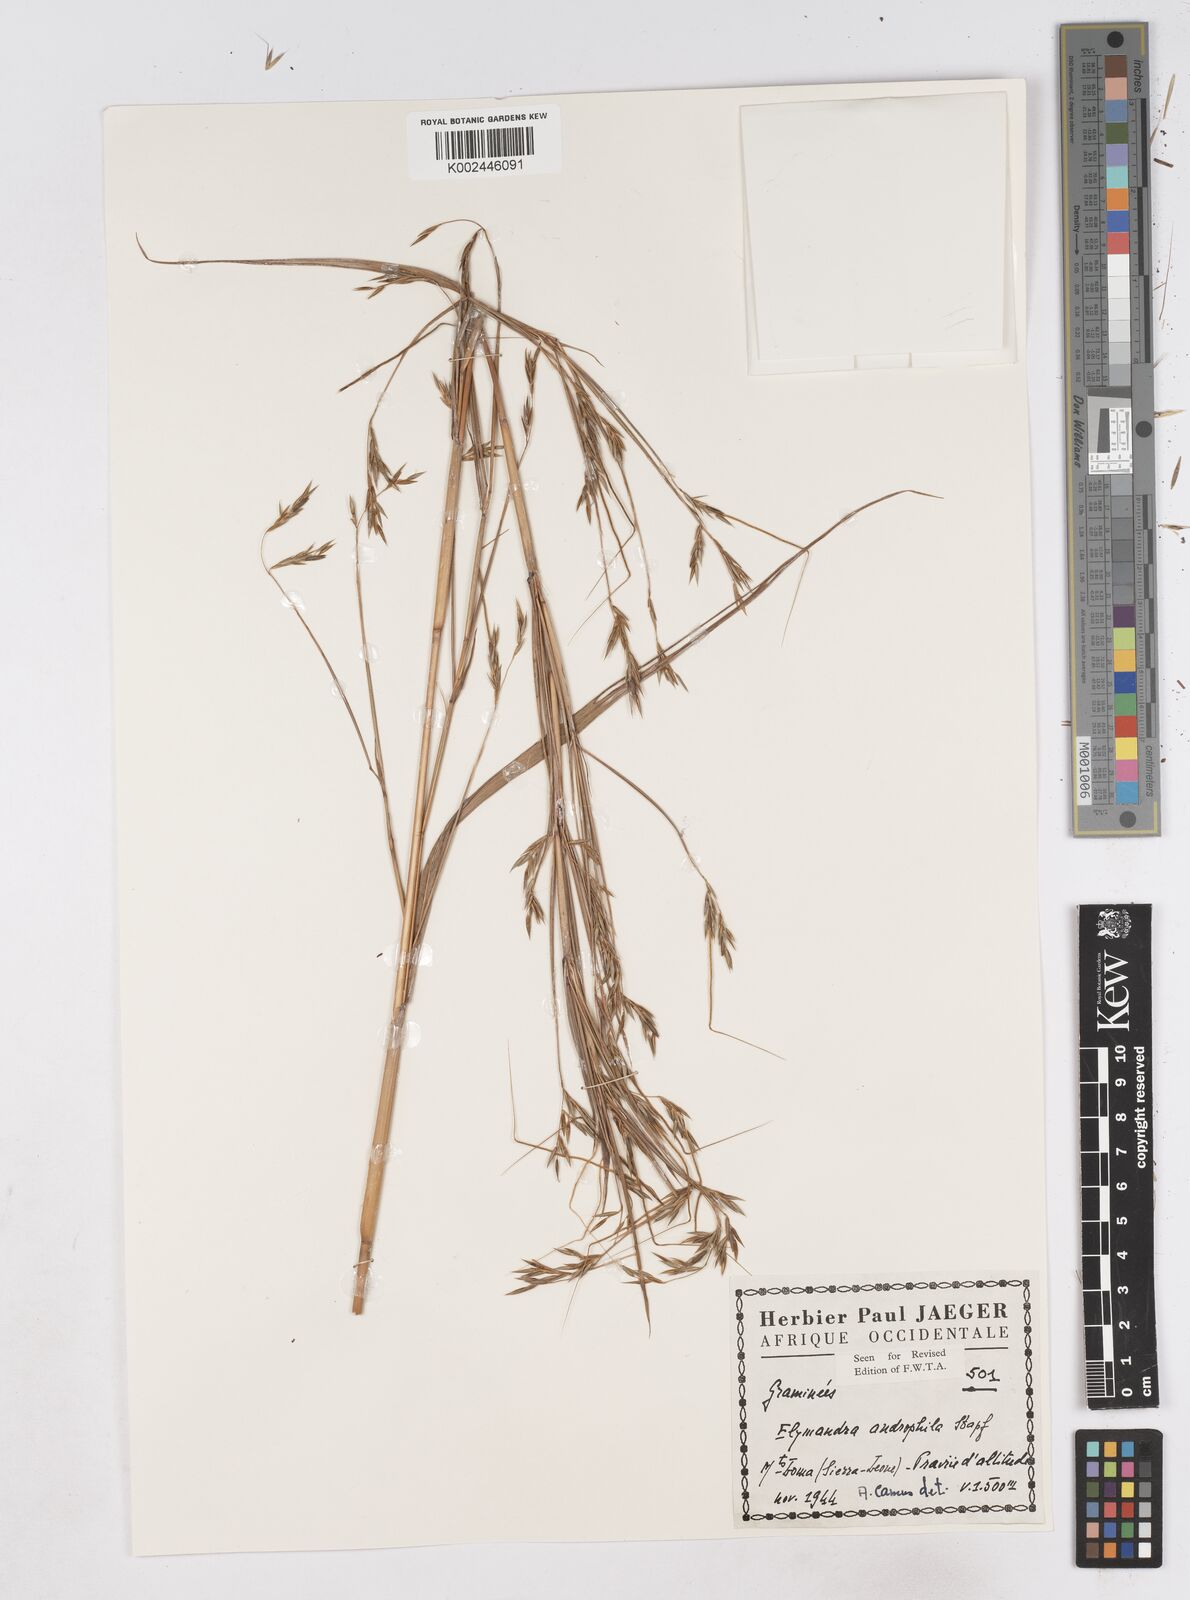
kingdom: Plantae
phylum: Tracheophyta
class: Liliopsida
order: Poales
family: Poaceae
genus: Elymandra
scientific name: Elymandra androphila
